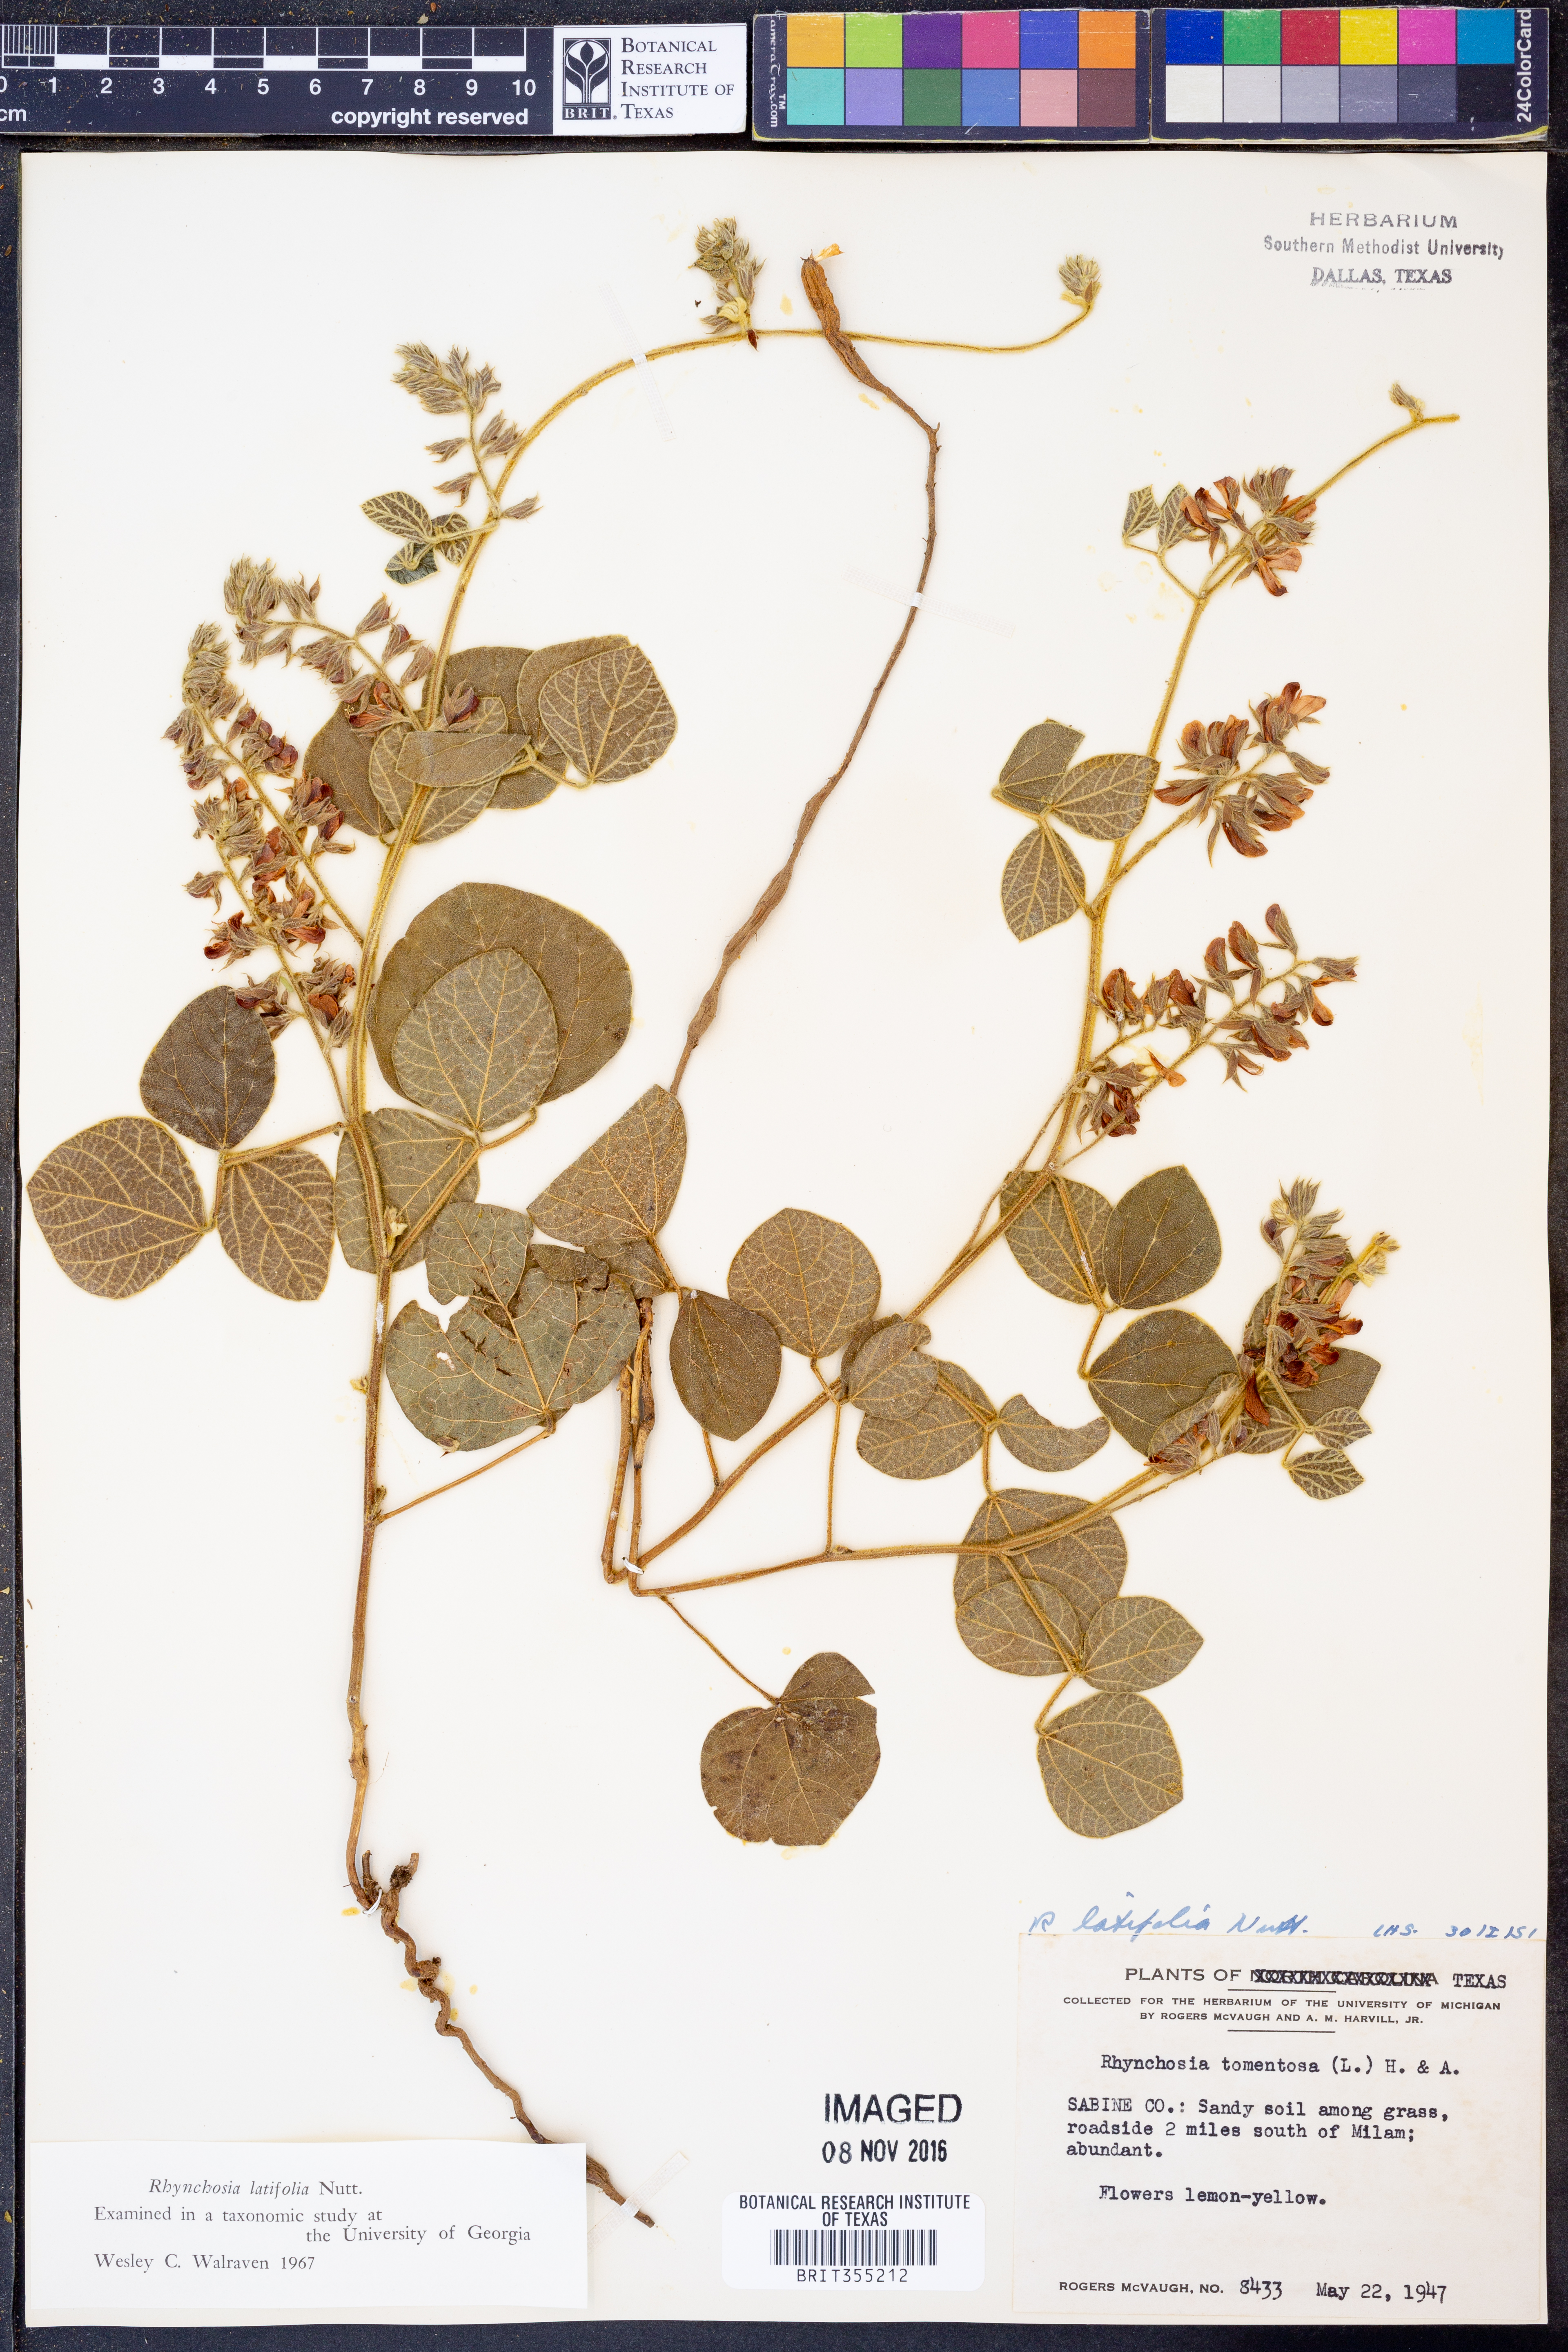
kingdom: Plantae
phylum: Tracheophyta
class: Magnoliopsida
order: Fabales
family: Fabaceae
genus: Rhynchosia
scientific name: Rhynchosia latifolia
